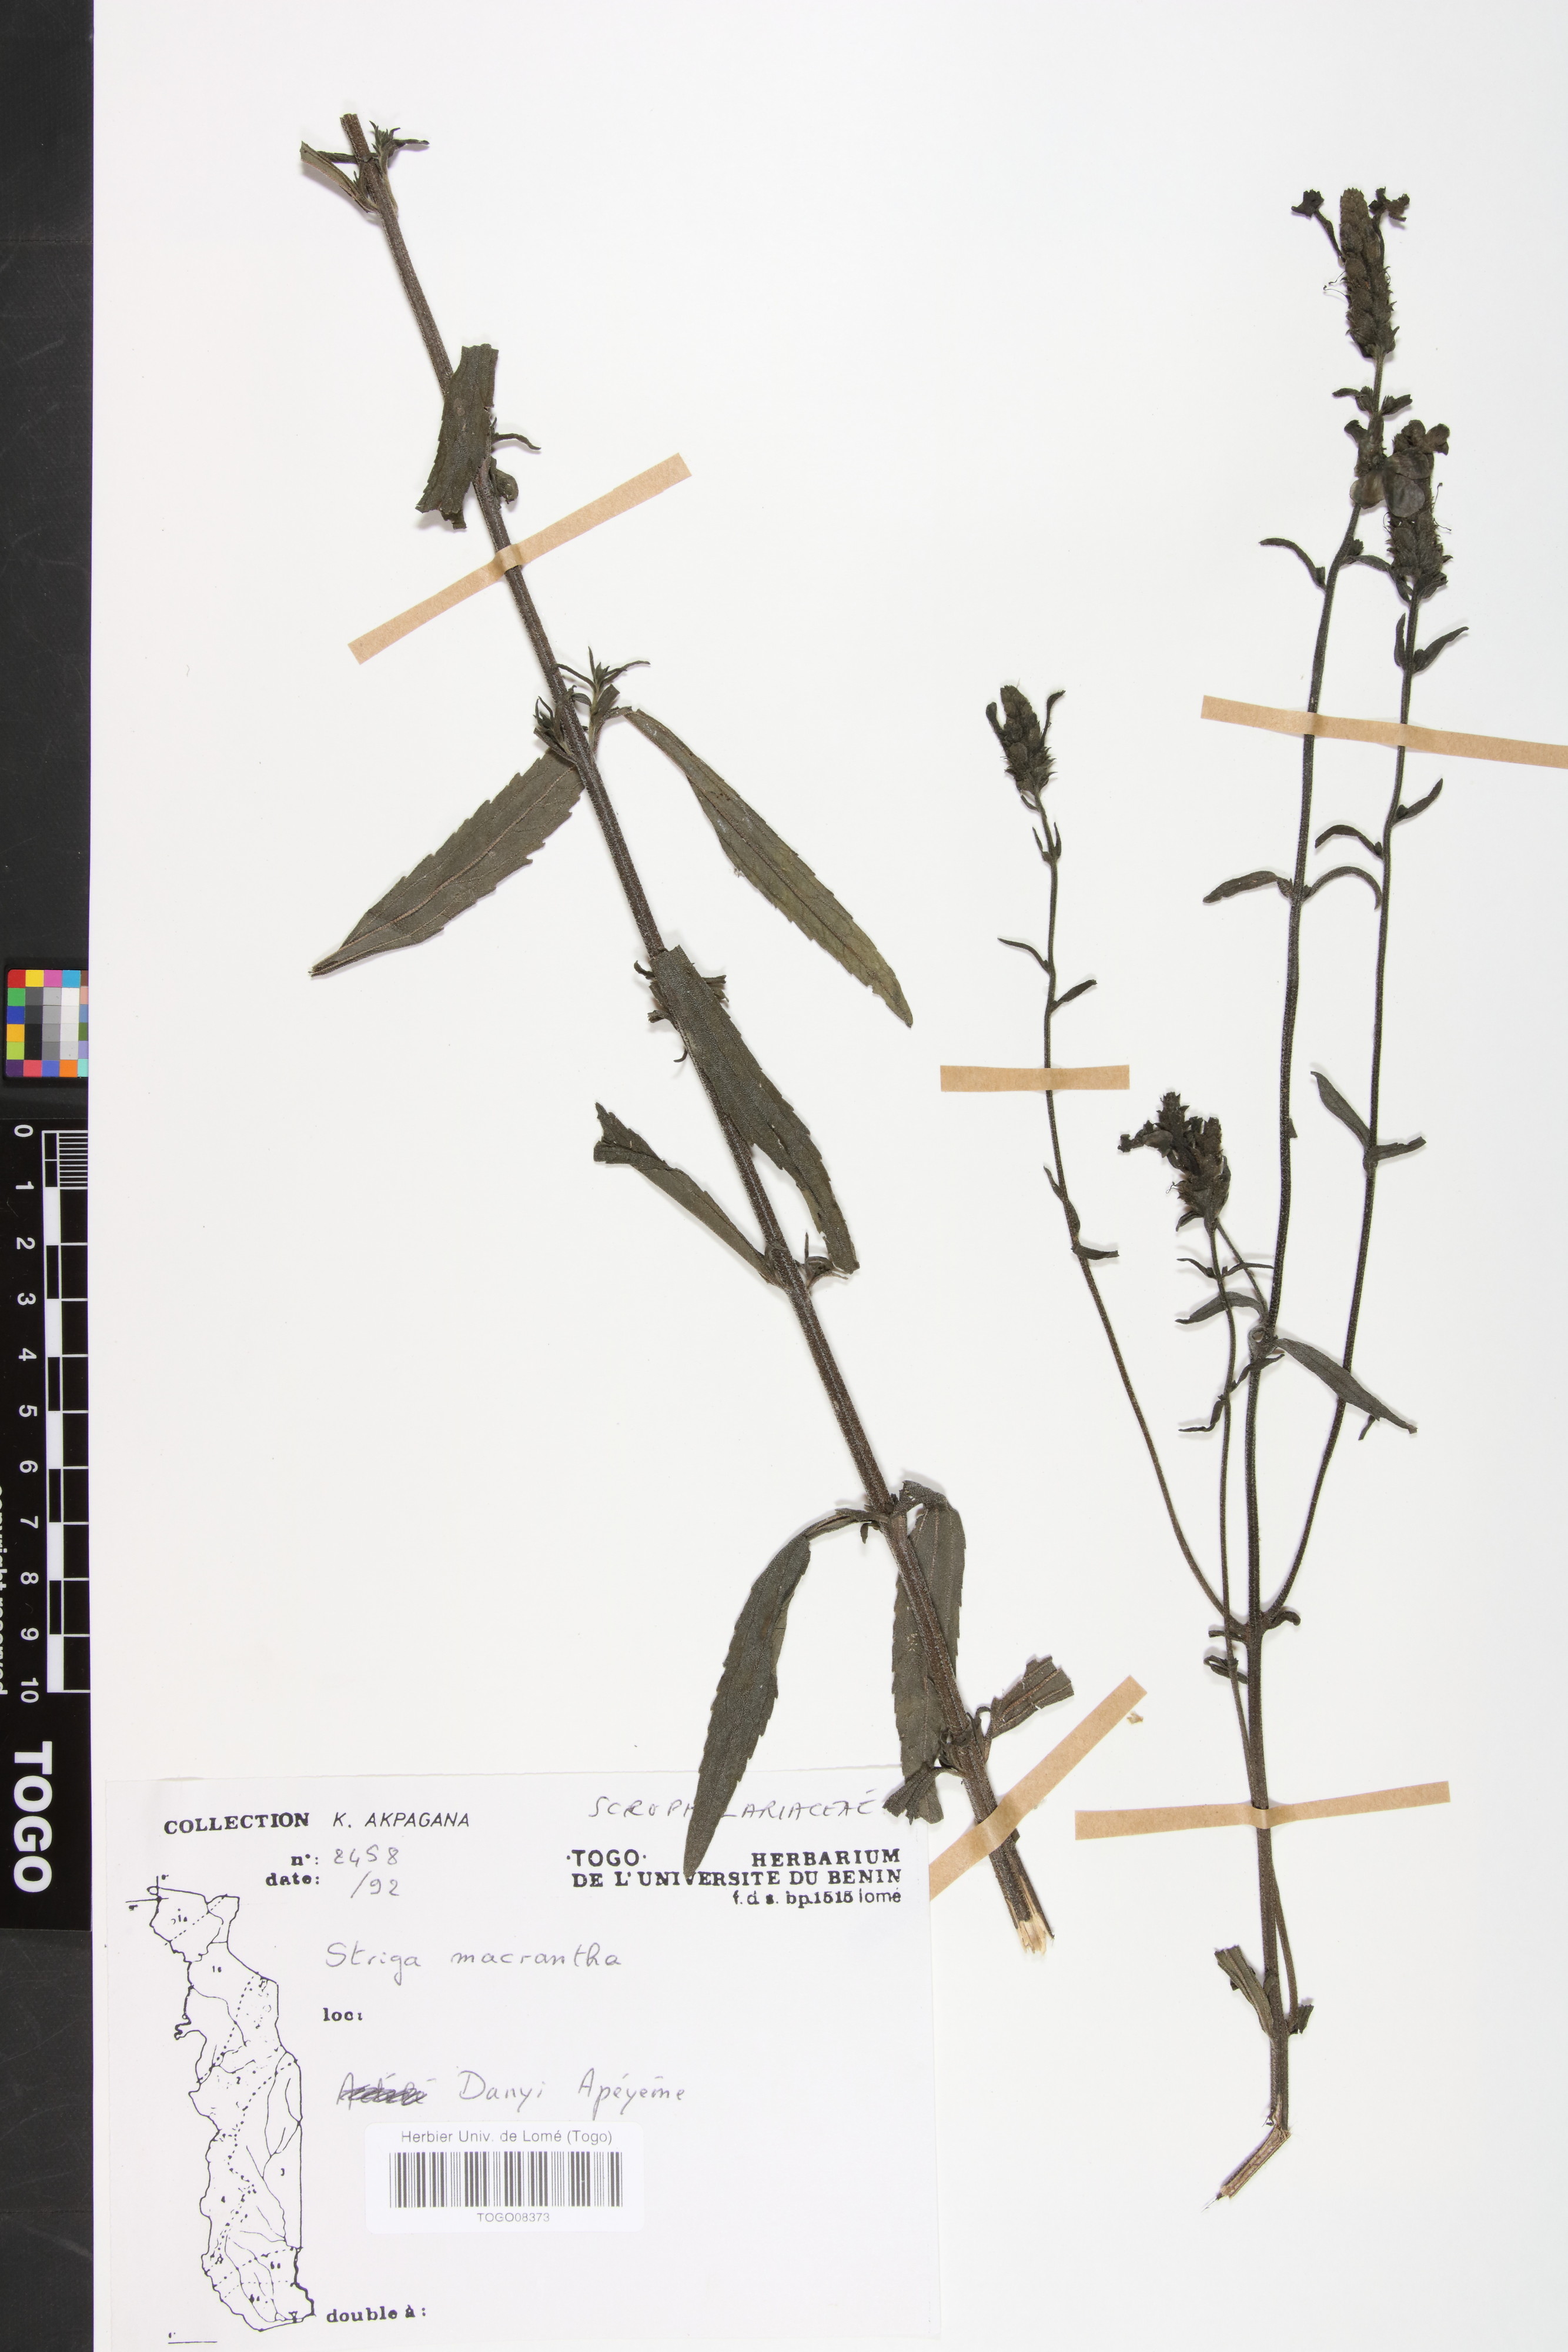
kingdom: Plantae
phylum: Tracheophyta
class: Magnoliopsida
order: Lamiales
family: Orobanchaceae
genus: Striga
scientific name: Striga macrantha
